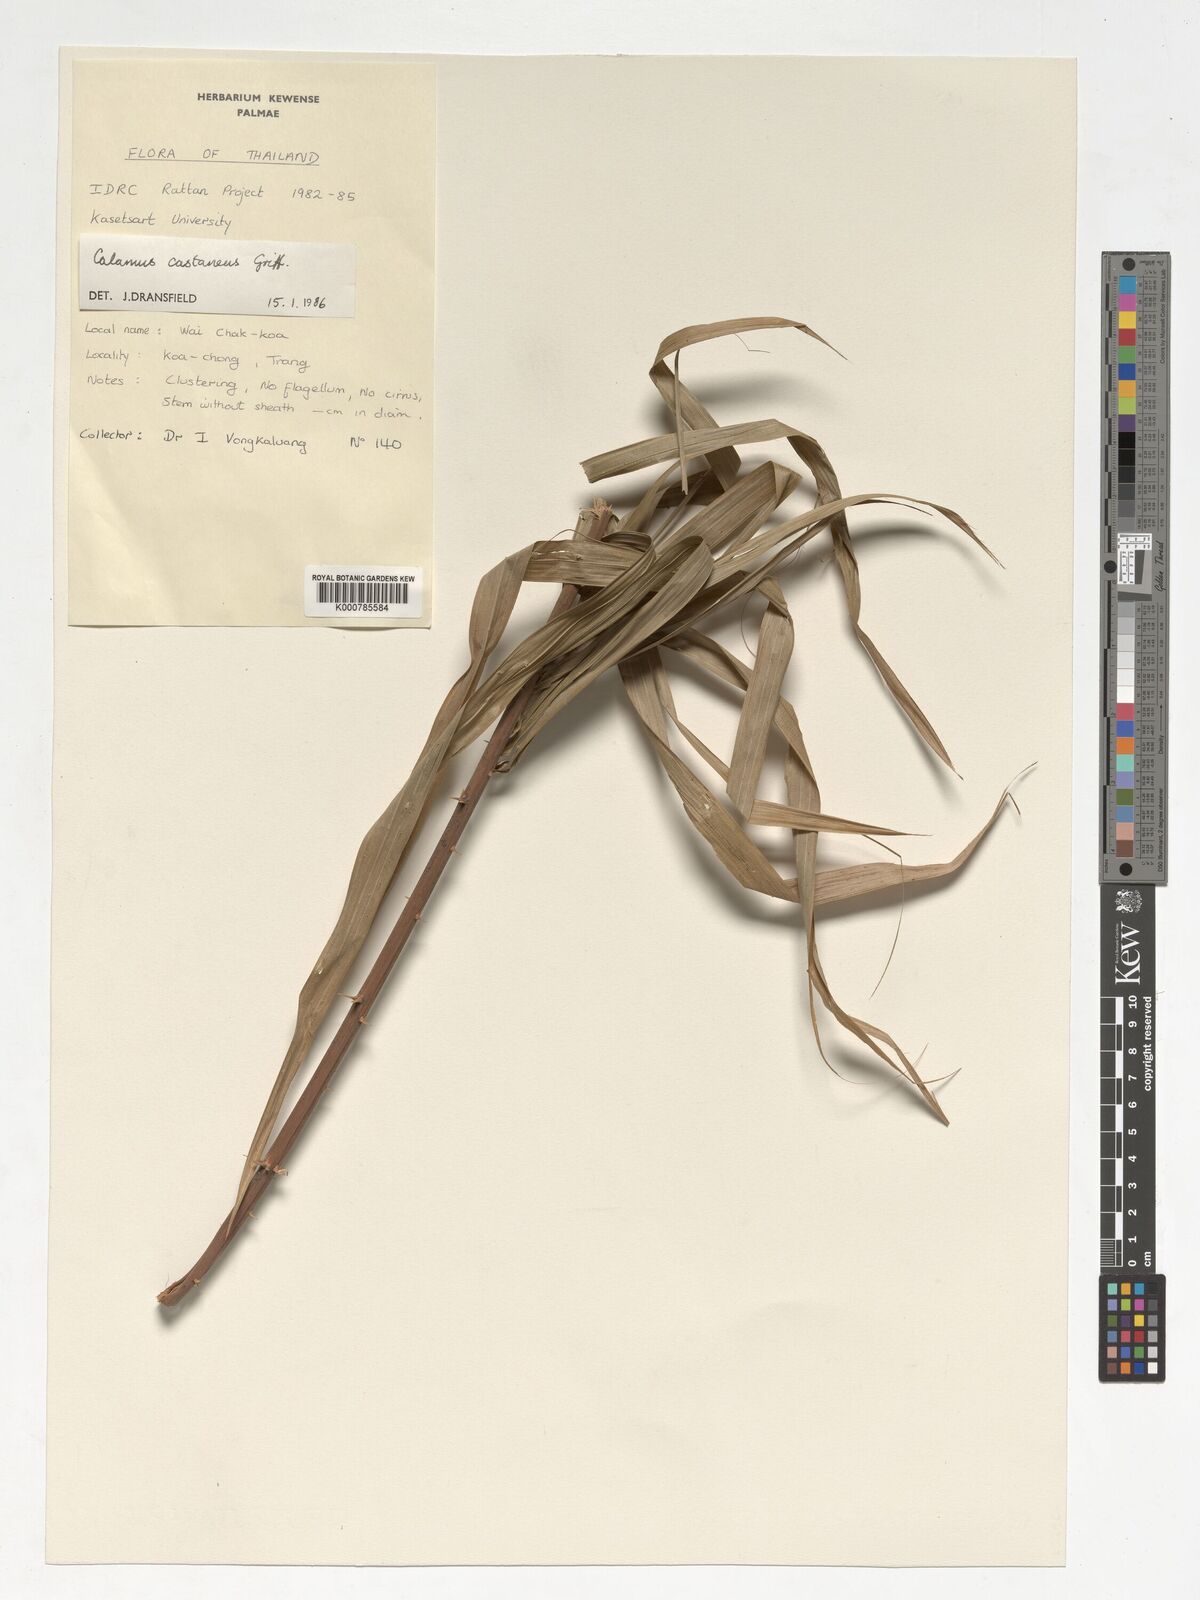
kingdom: Plantae
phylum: Tracheophyta
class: Liliopsida
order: Arecales
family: Arecaceae
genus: Calamus
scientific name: Calamus castaneus
